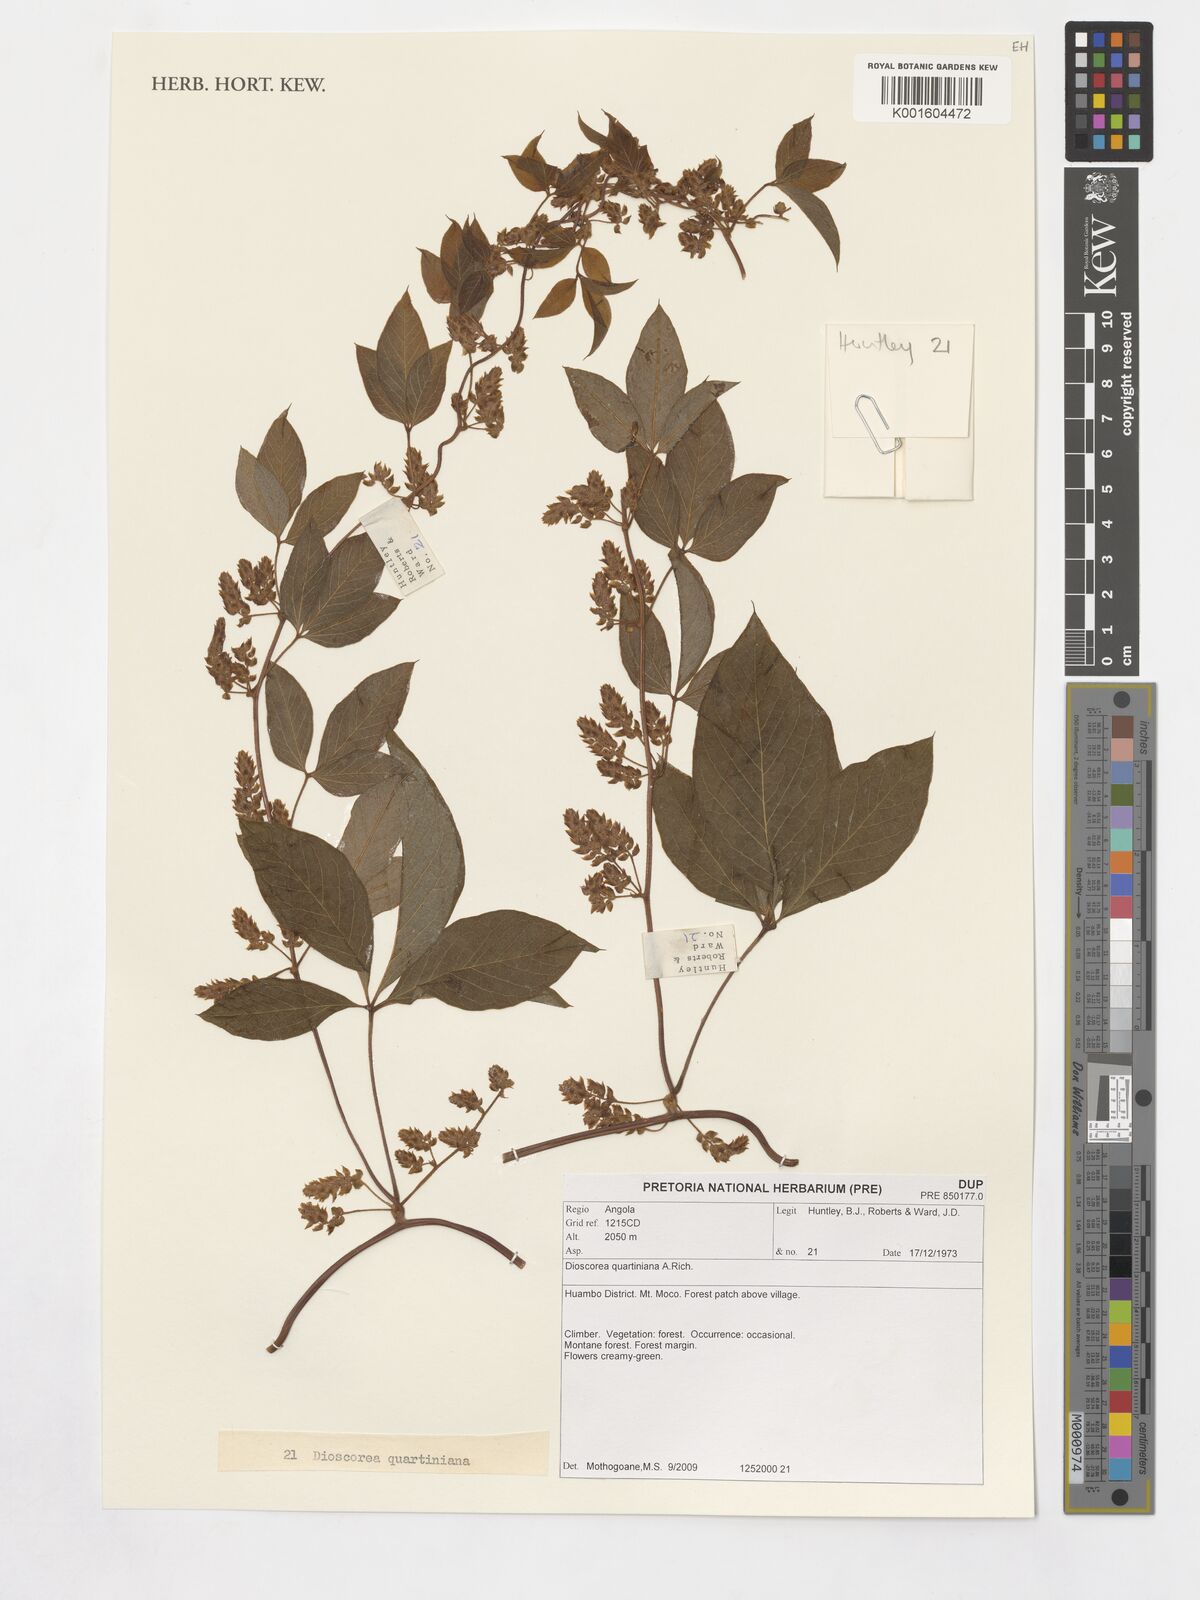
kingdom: Plantae
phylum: Tracheophyta
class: Liliopsida
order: Dioscoreales
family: Dioscoreaceae
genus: Dioscorea
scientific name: Dioscorea quartiniana
